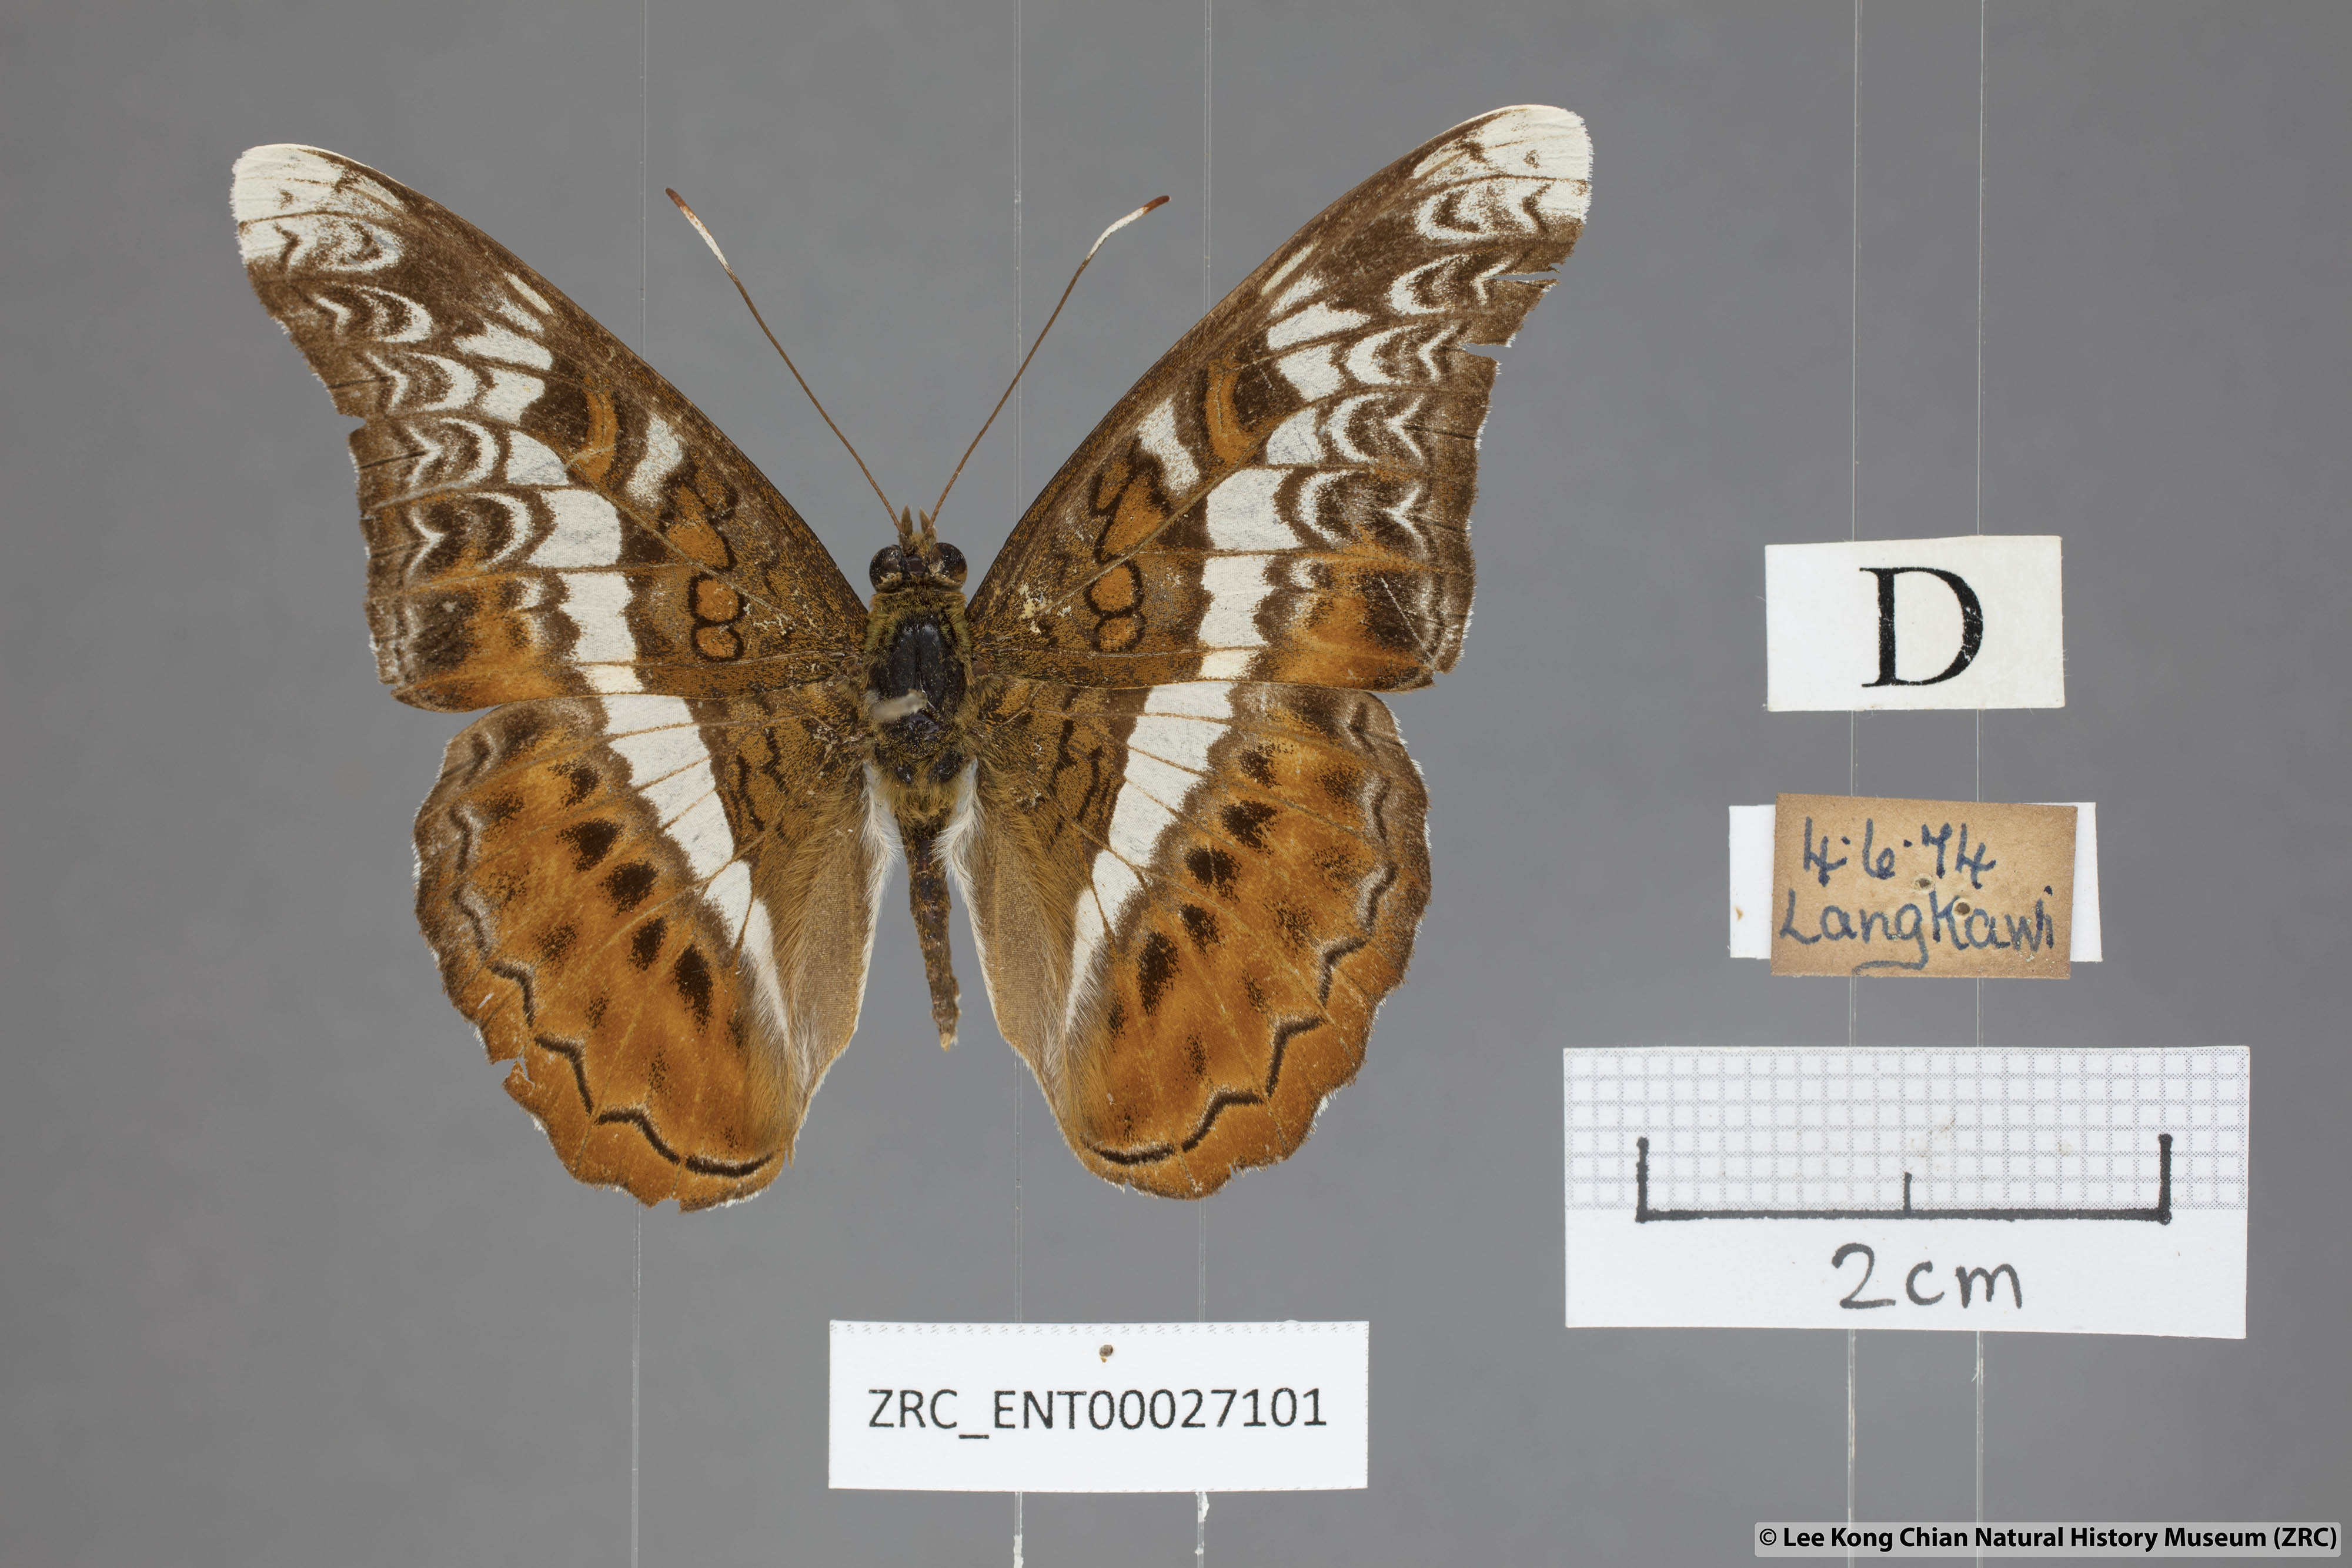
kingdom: Animalia
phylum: Arthropoda
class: Insecta
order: Lepidoptera
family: Nymphalidae
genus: Lebadea
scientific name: Lebadea martha
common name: Knight
